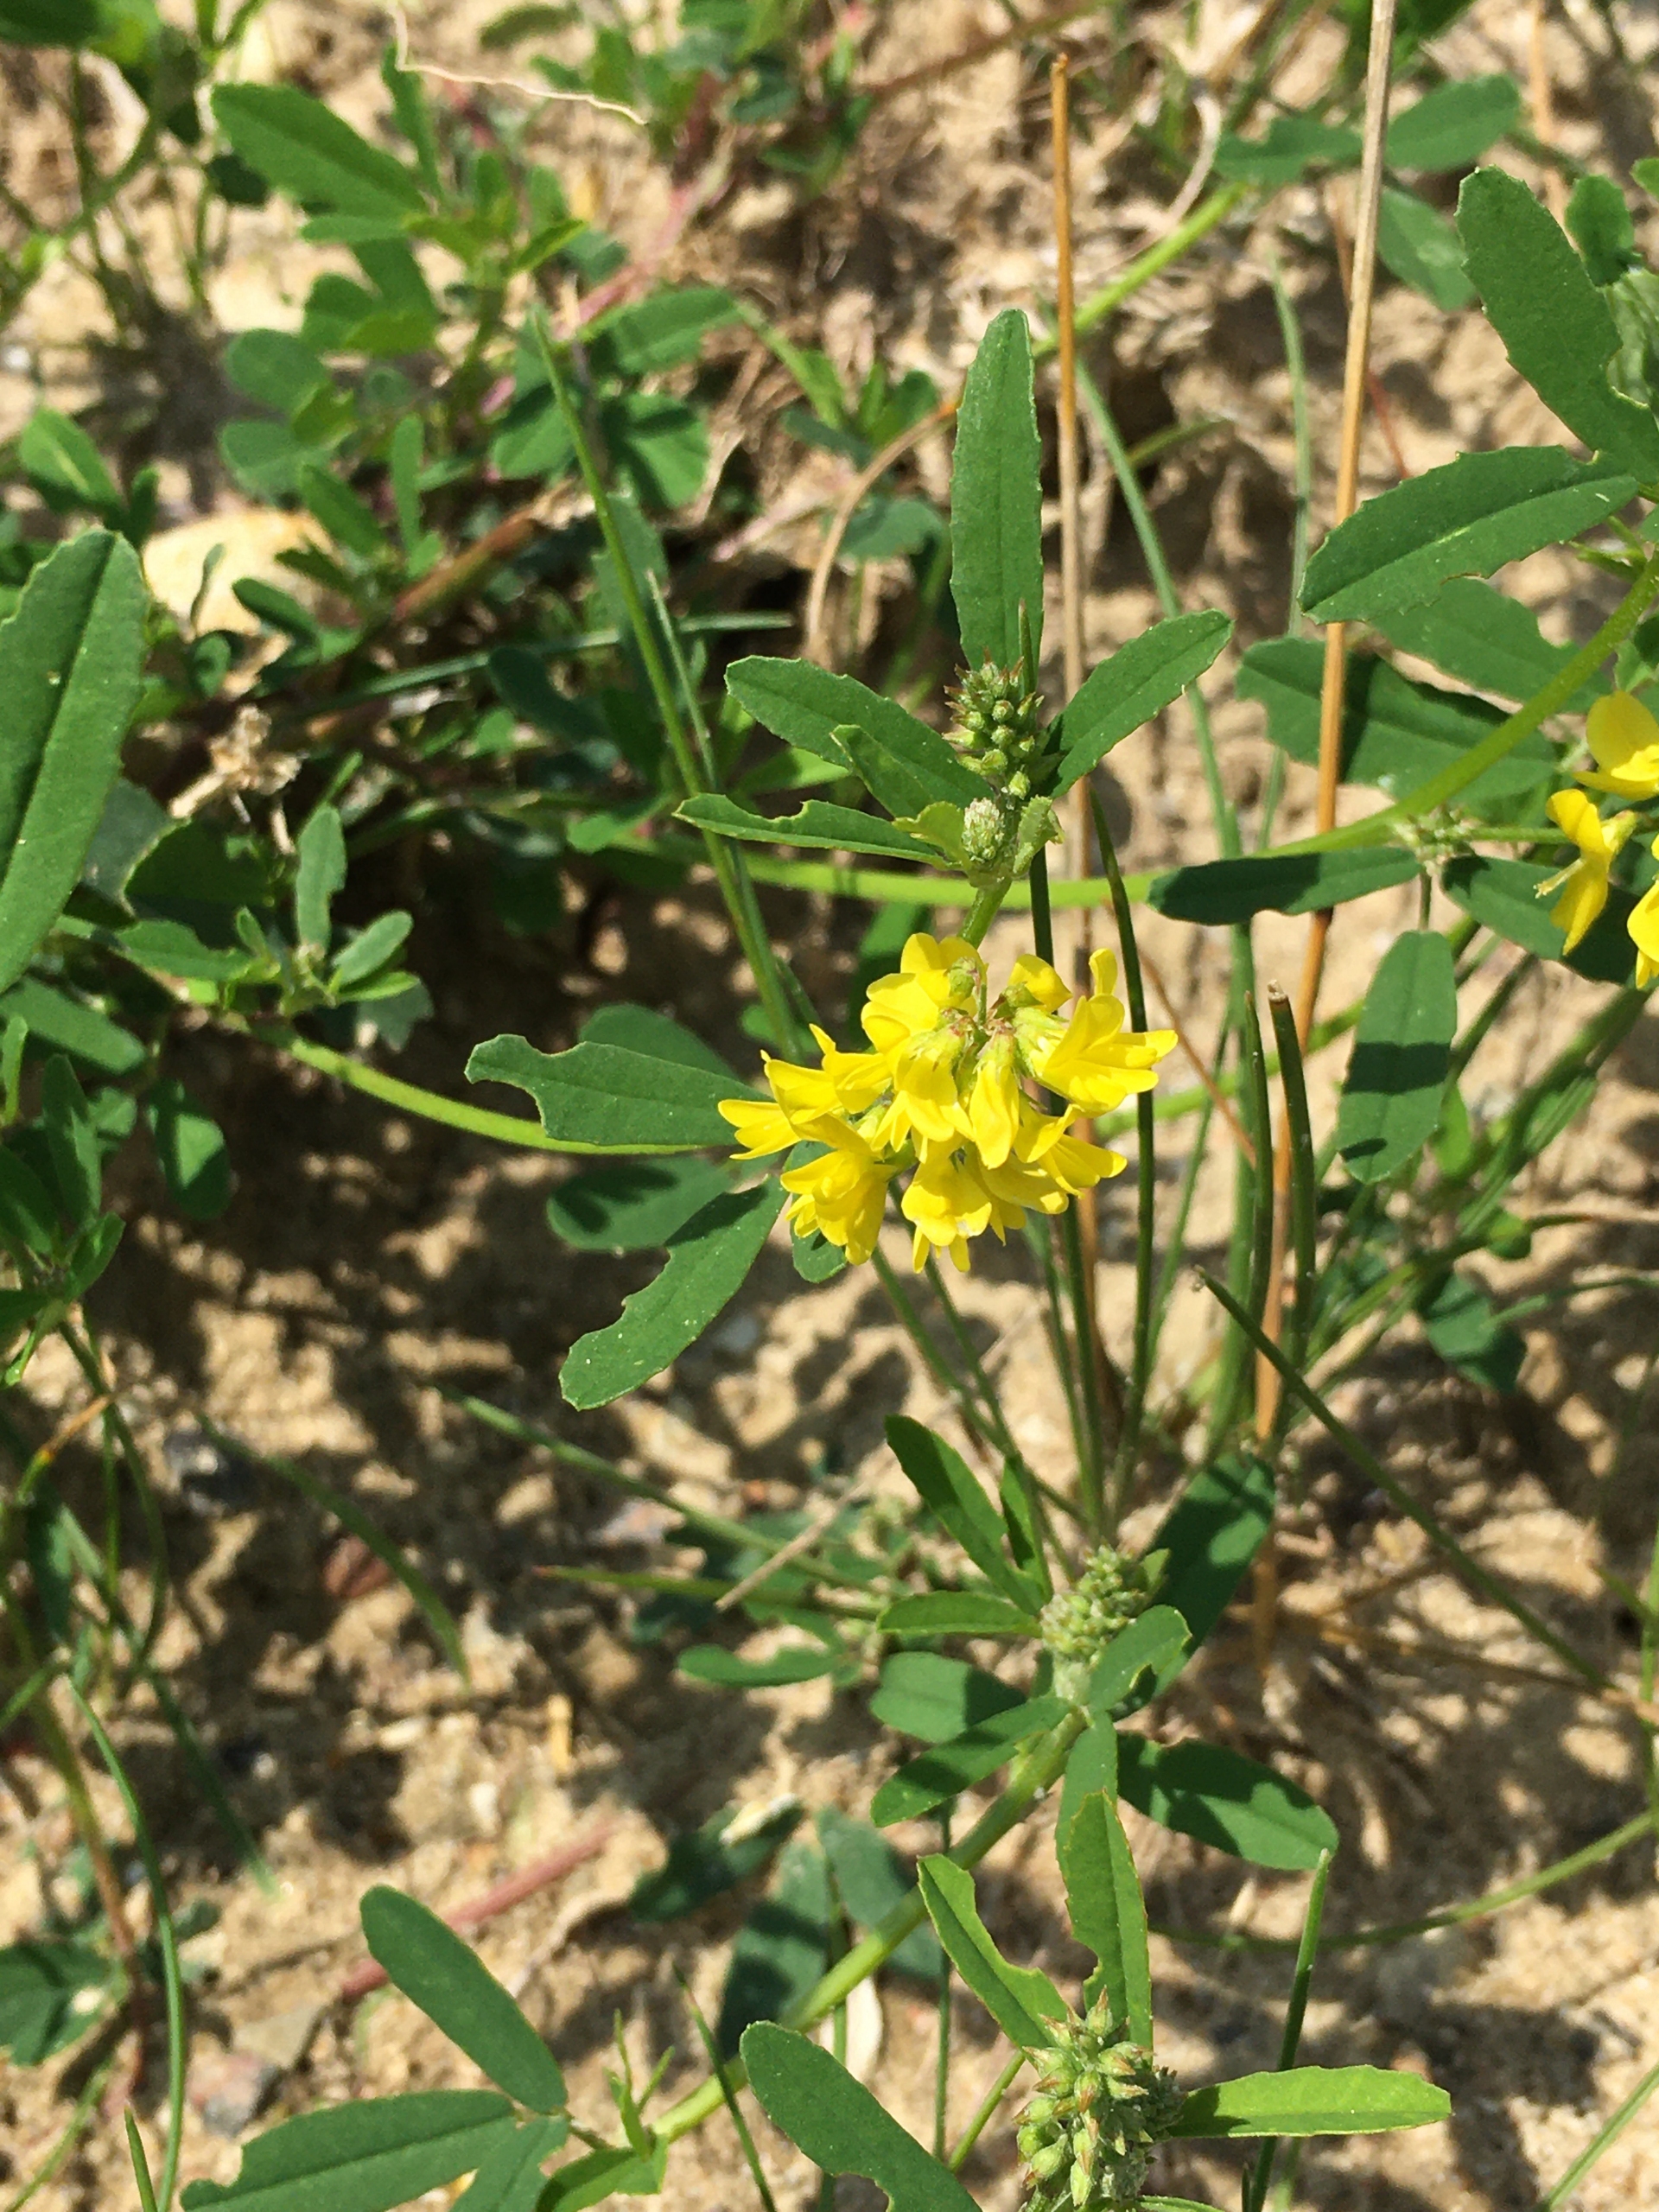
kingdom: Plantae
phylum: Tracheophyta
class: Magnoliopsida
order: Fabales
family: Fabaceae
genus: Melilotus
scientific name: Melilotus officinalis
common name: Mark-stenkløver
